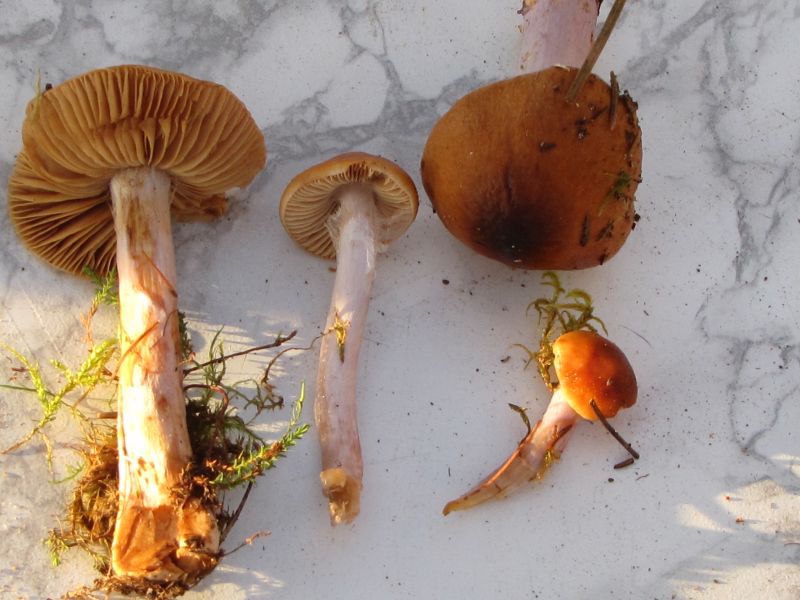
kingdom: Fungi
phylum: Basidiomycota
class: Agaricomycetes
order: Agaricales
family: Cortinariaceae
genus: Cortinarius
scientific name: Cortinarius collinitus
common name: spættet slørhat
